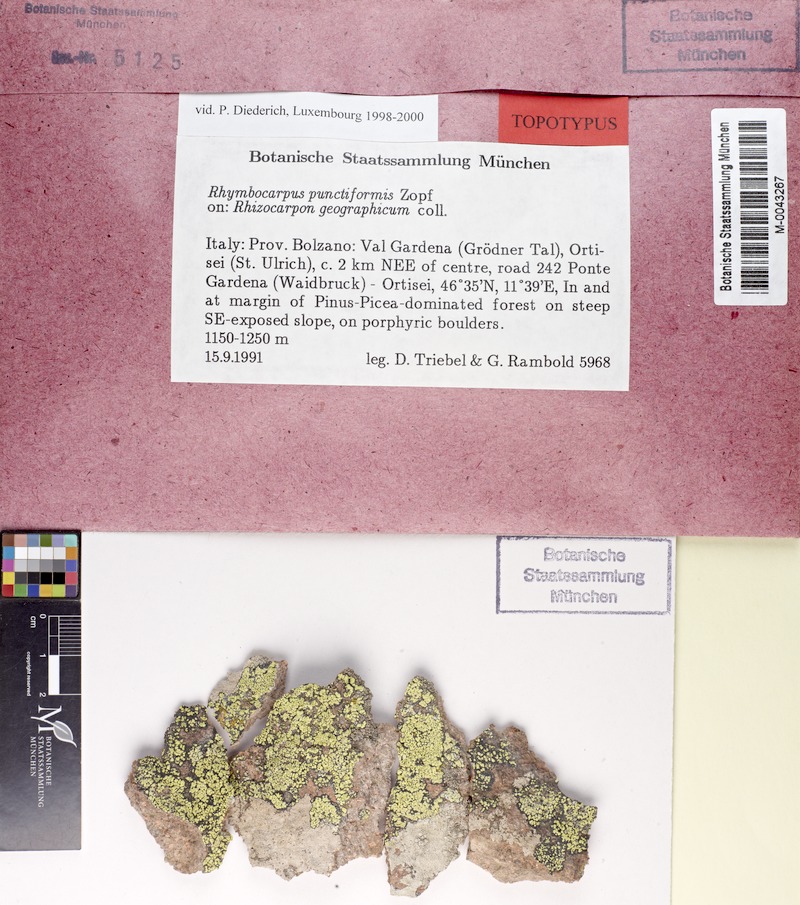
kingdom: Fungi
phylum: Ascomycota
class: Lecanoromycetes
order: Rhizocarpales
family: Rhizocarpaceae
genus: Rhizocarpon
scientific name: Rhizocarpon geographicum
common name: Yellow map lichen
